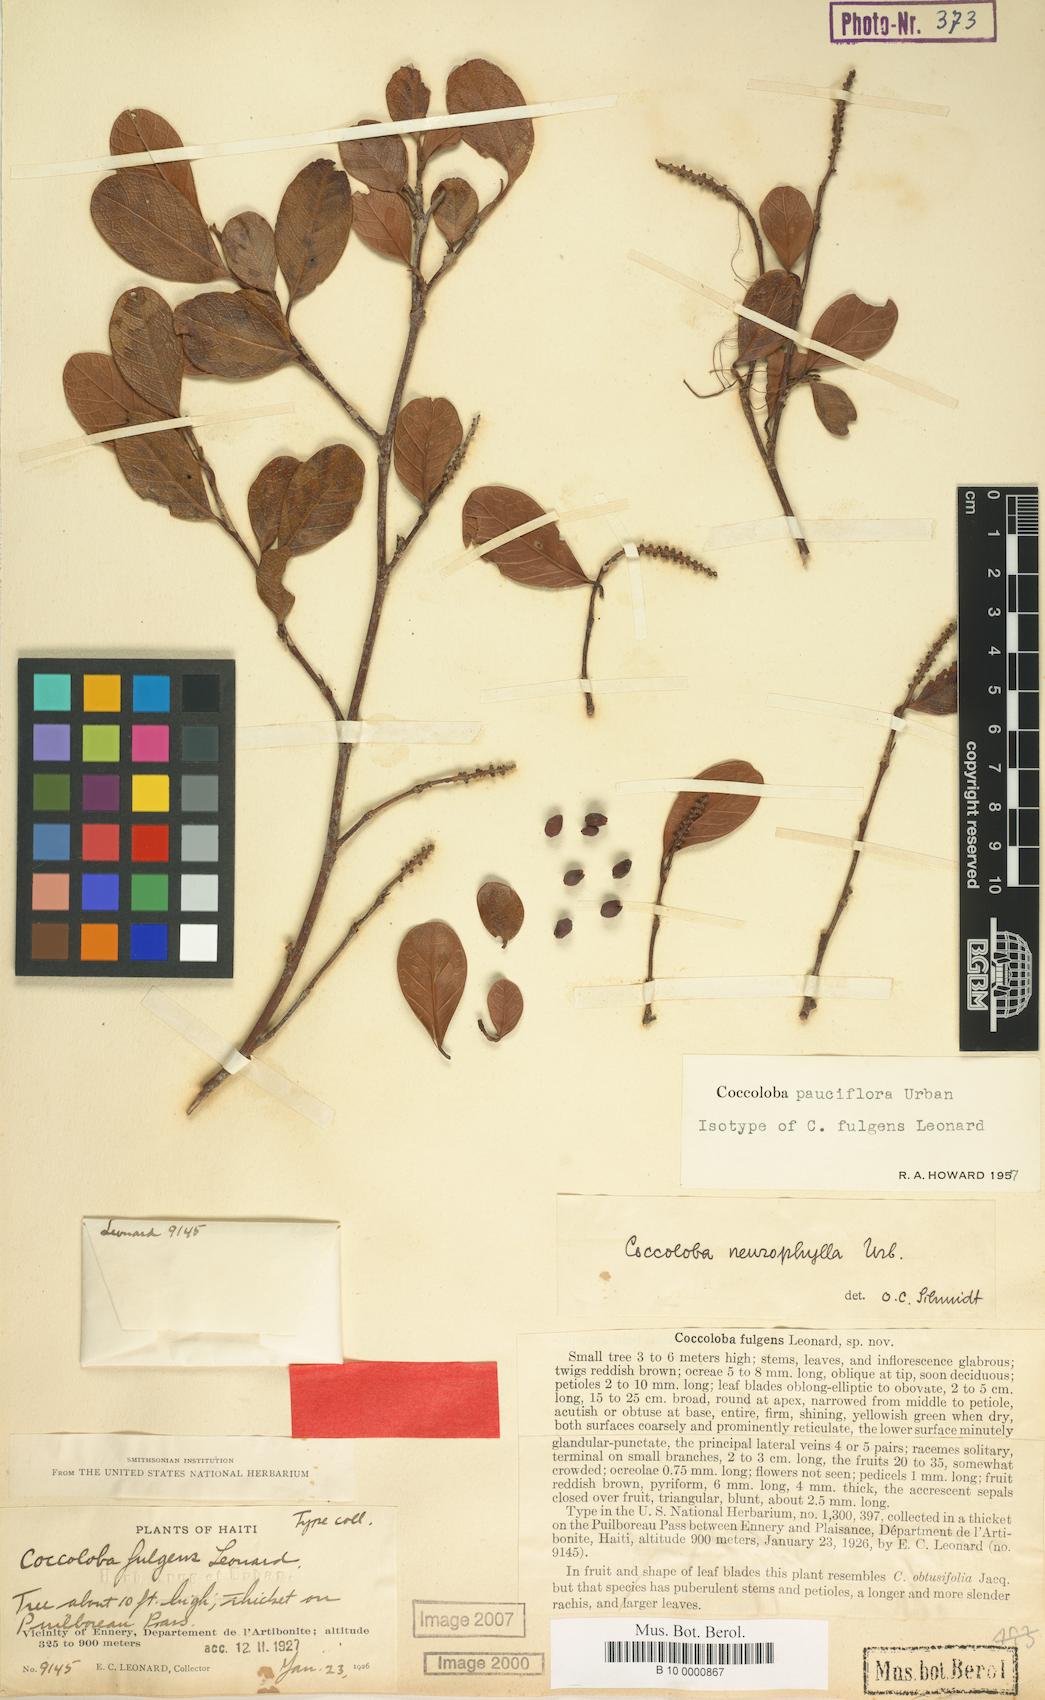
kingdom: Plantae
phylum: Tracheophyta
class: Magnoliopsida
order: Caryophyllales
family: Polygonaceae
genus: Coccoloba
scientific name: Coccoloba pauciflora
